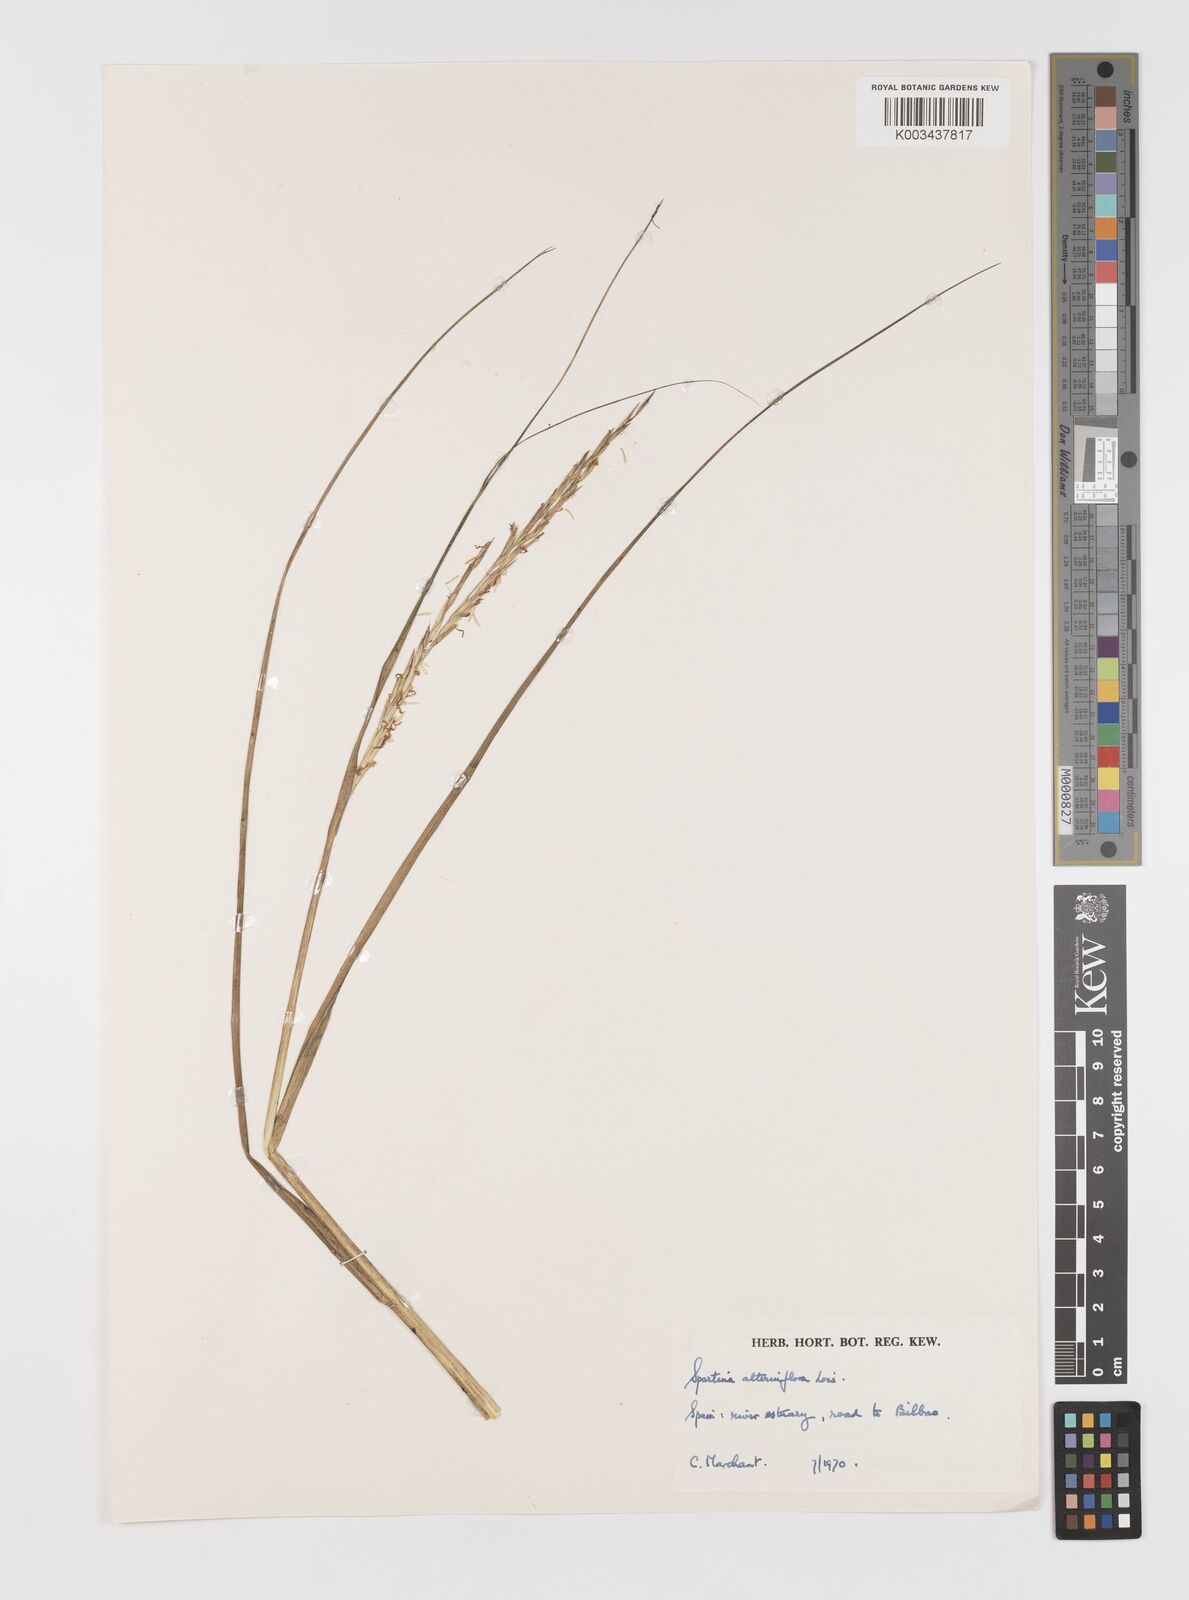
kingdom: Plantae
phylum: Tracheophyta
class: Liliopsida
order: Poales
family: Poaceae
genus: Sporobolus
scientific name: Sporobolus alterniflorus
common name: Atlantic cordgrass
